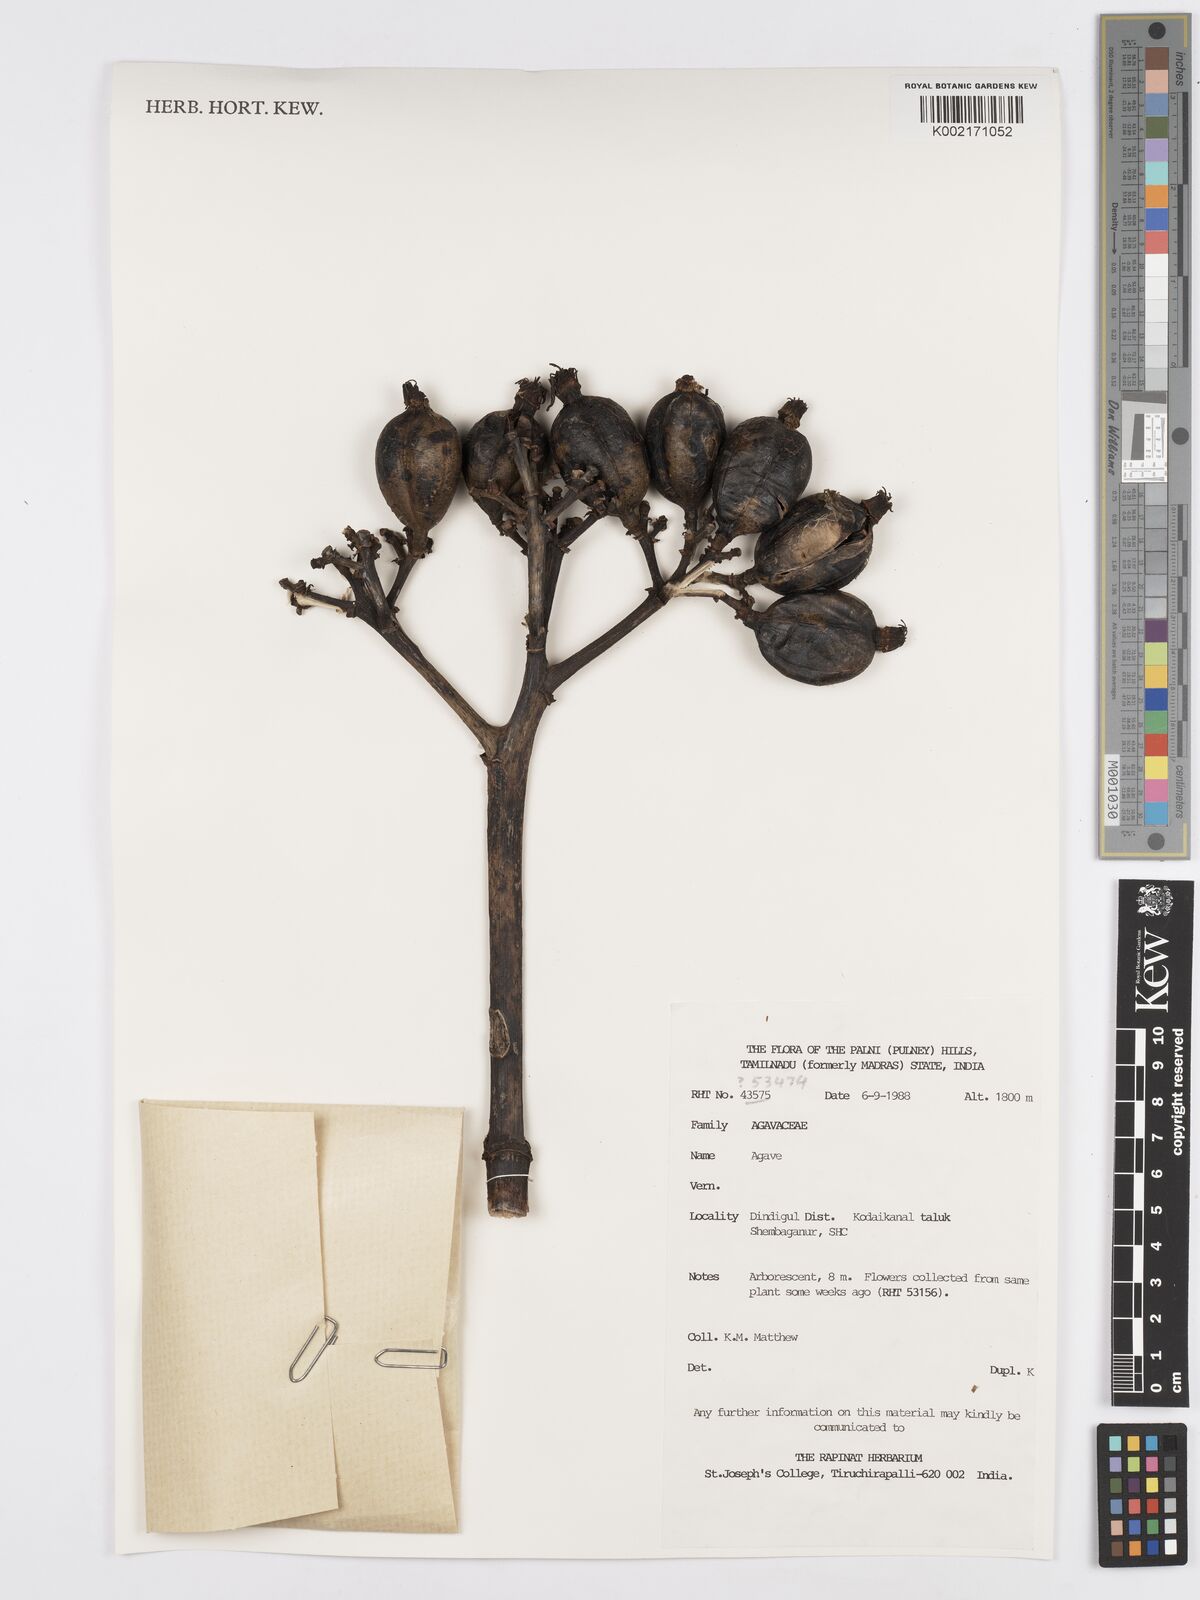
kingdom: Plantae
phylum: Tracheophyta
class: Liliopsida
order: Asparagales
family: Asparagaceae
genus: Agave
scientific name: Agave
